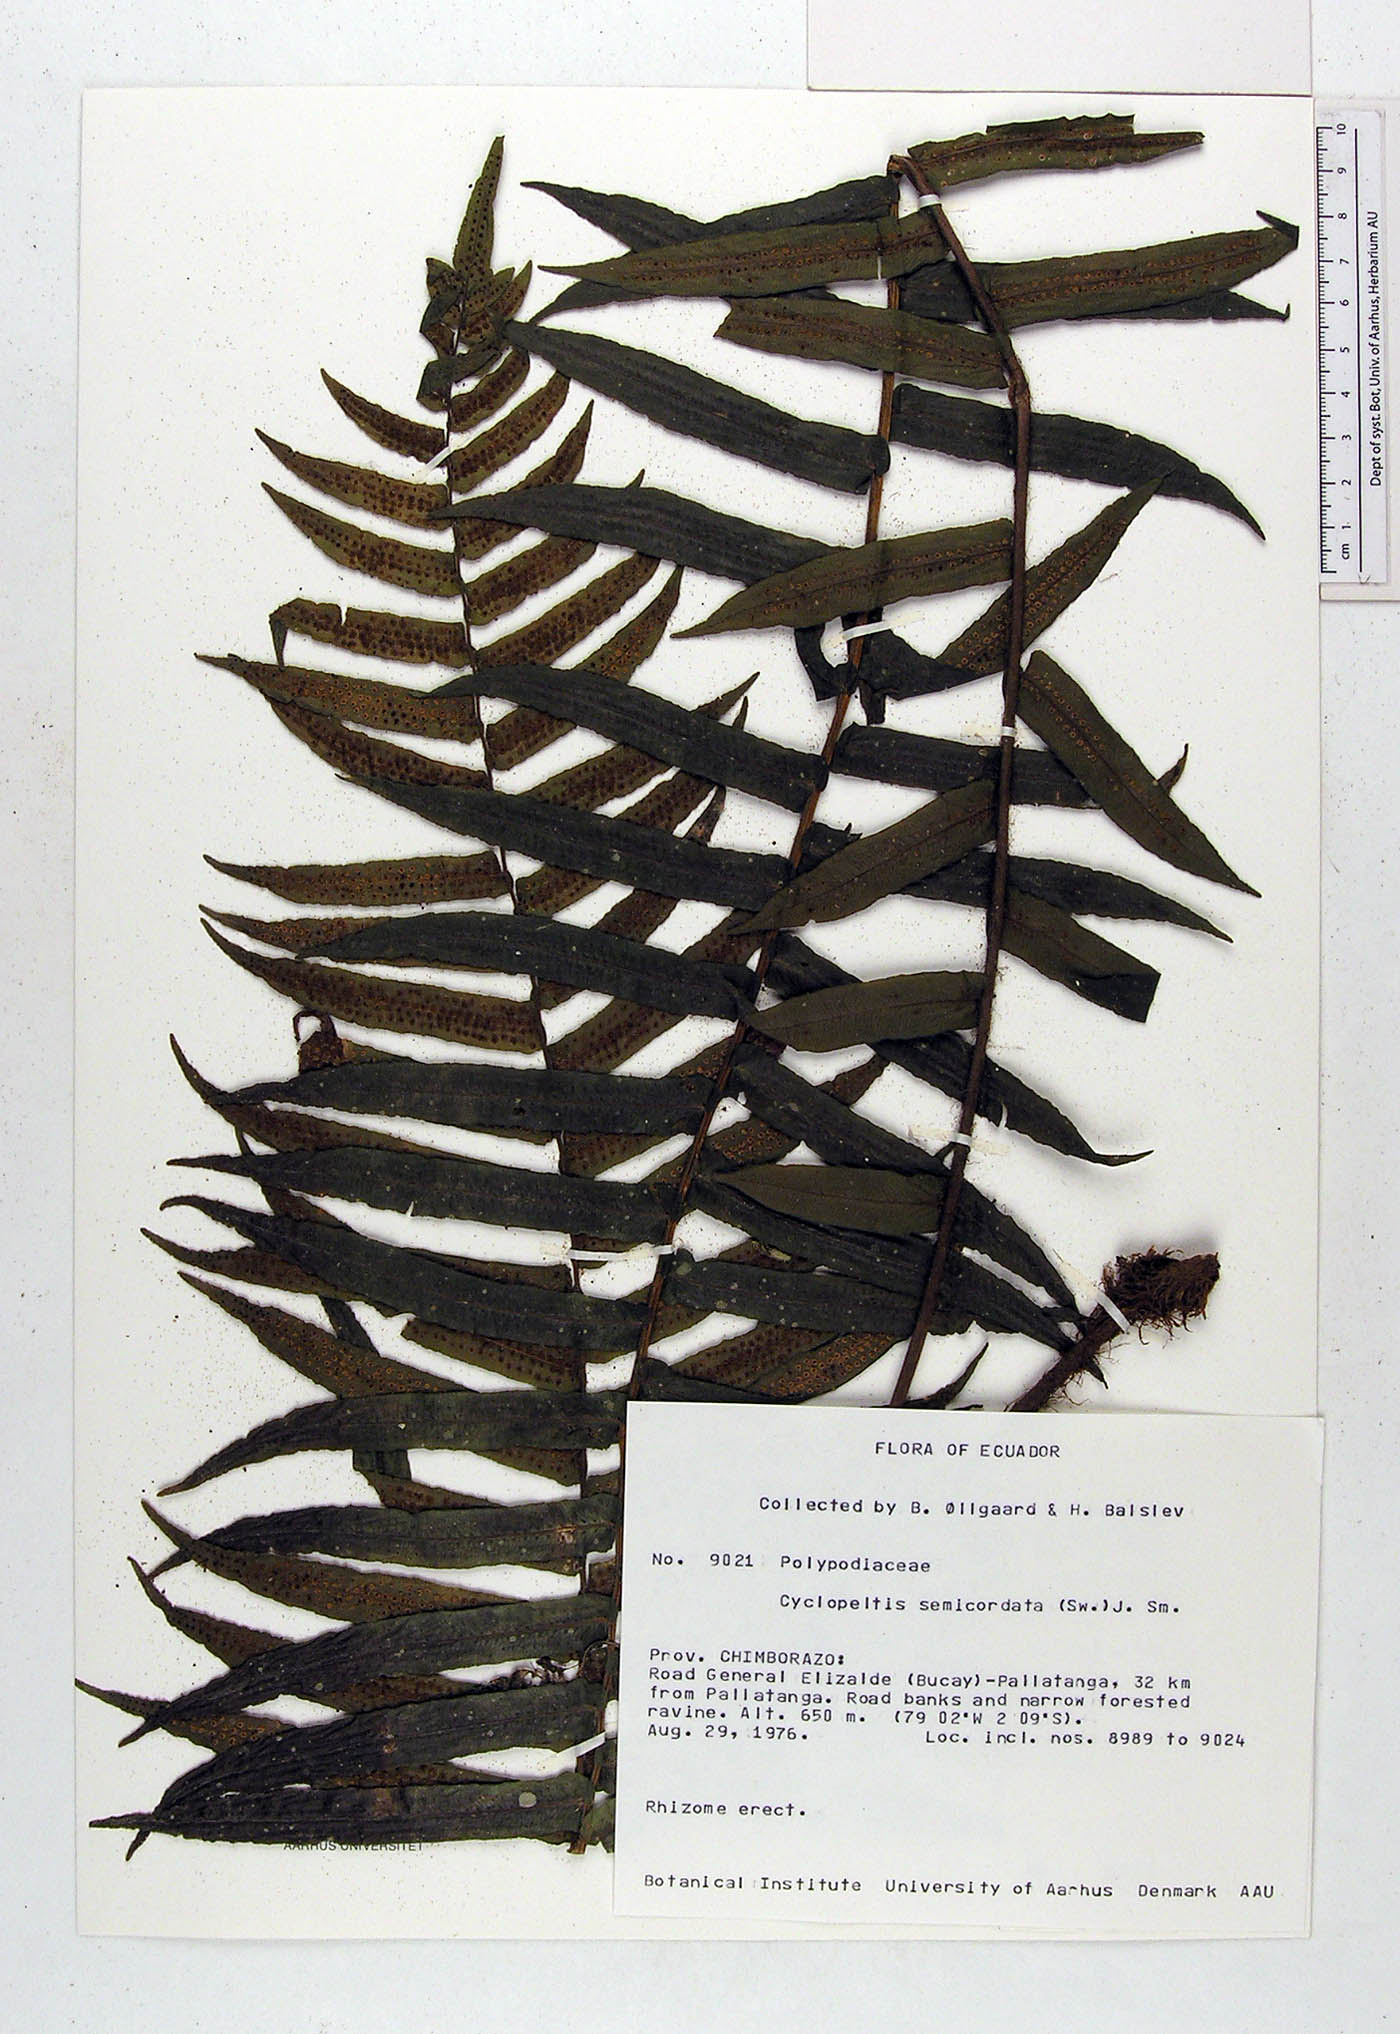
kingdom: Plantae
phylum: Tracheophyta
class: Polypodiopsida
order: Polypodiales
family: Lomariopsidaceae
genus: Cyclopeltis
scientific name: Cyclopeltis semicordata
